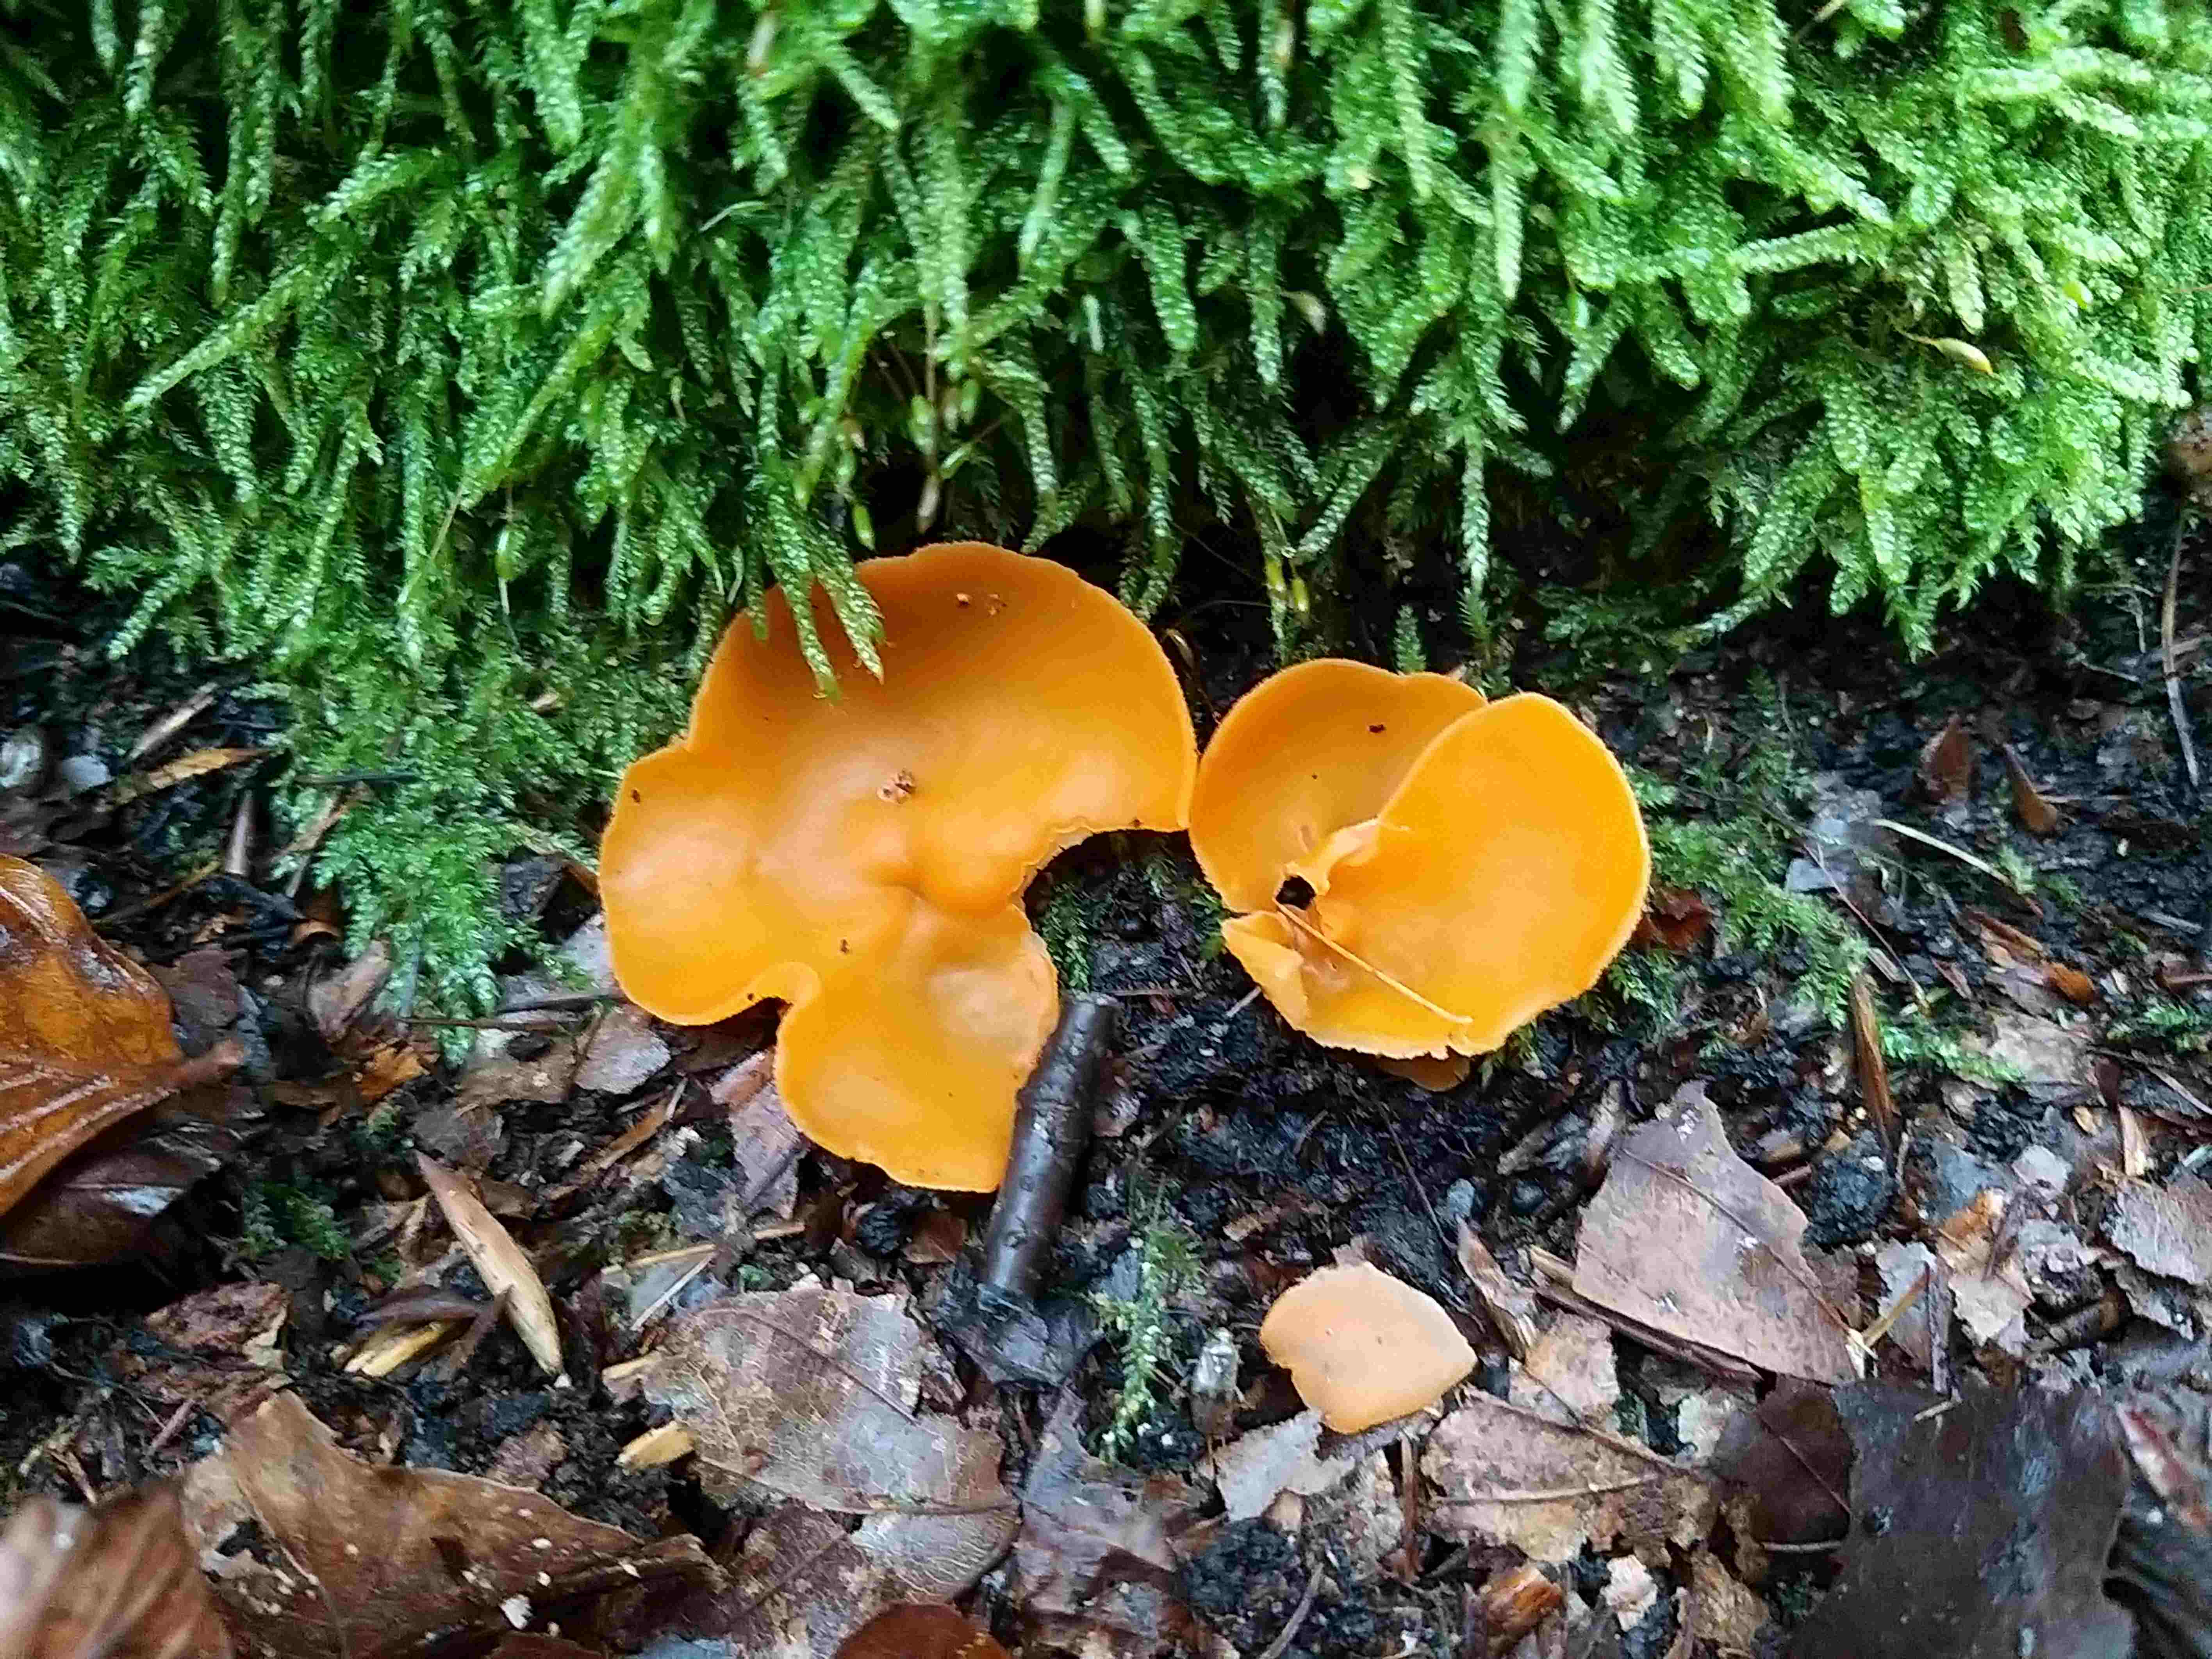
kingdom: Fungi
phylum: Ascomycota
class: Pezizomycetes
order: Pezizales
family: Pyronemataceae
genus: Aleuria
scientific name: Aleuria aurantia
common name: almindelig orangebæger
